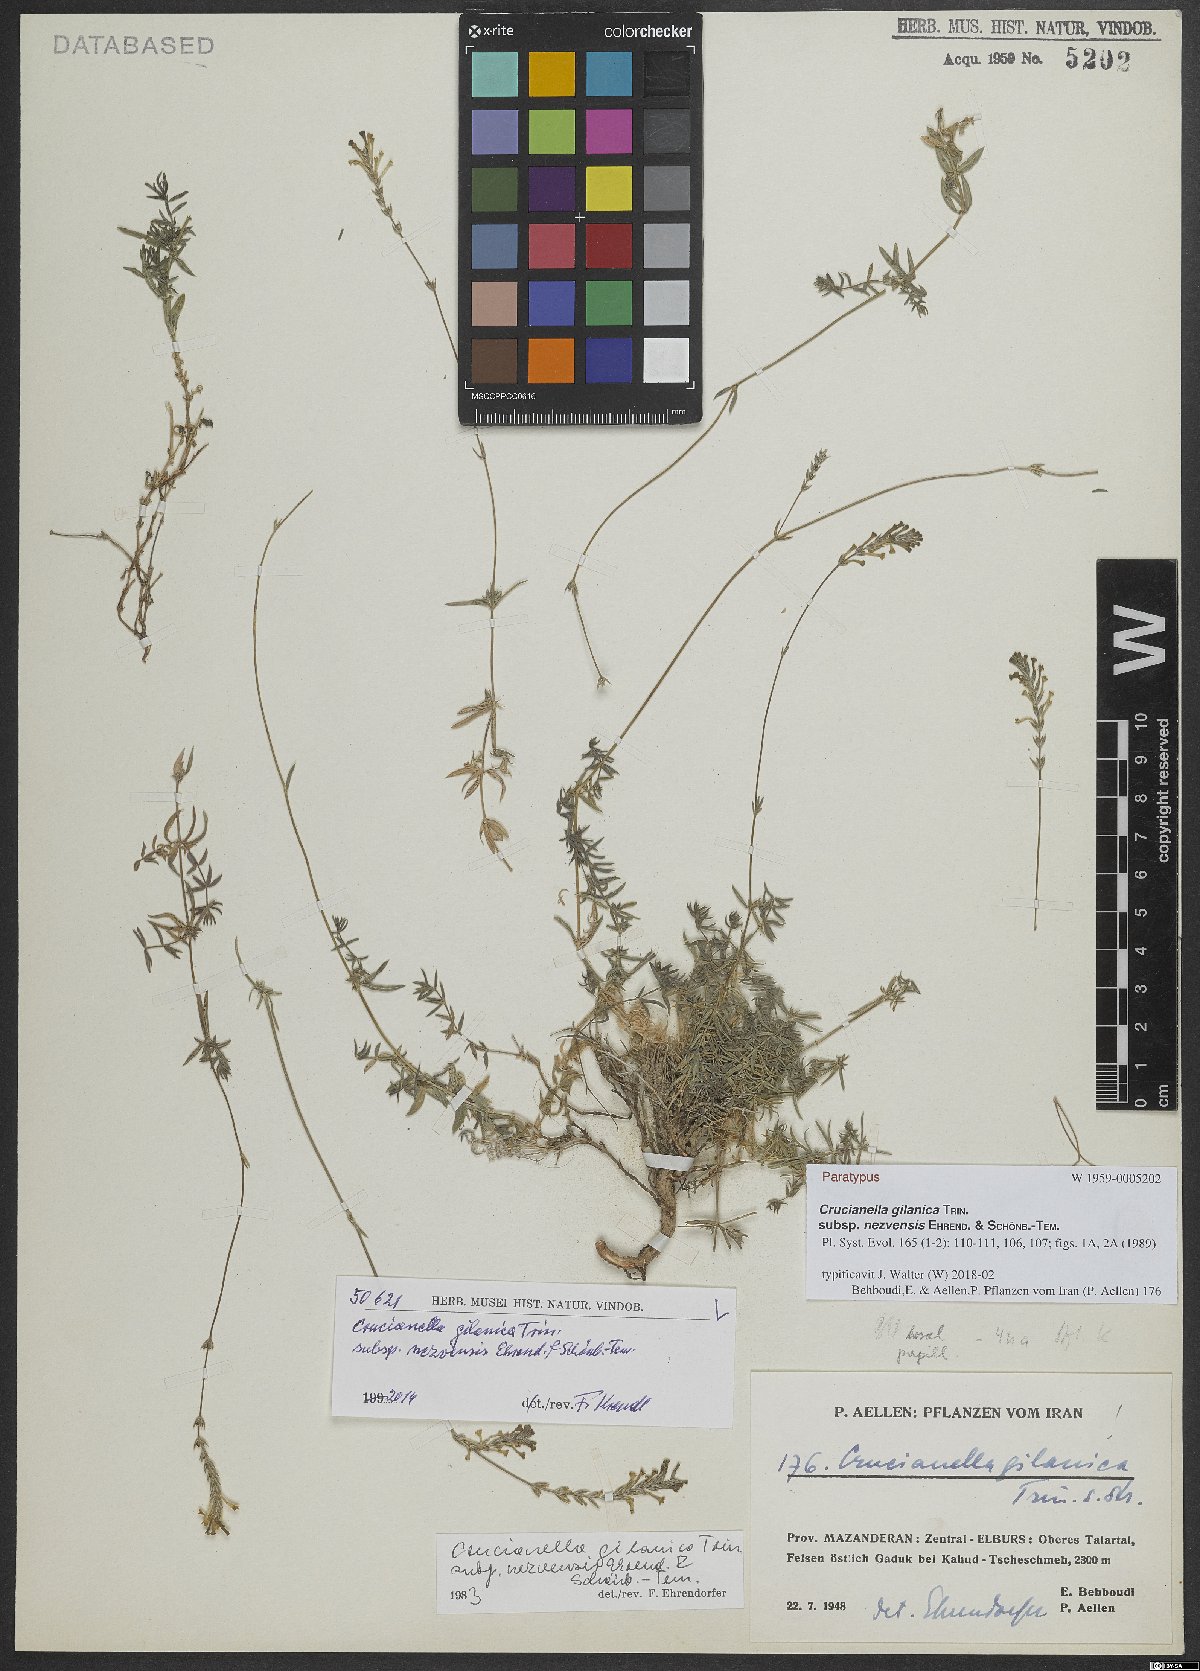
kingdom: Plantae
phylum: Tracheophyta
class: Magnoliopsida
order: Gentianales
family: Rubiaceae
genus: Crucianella
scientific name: Crucianella gilanica
